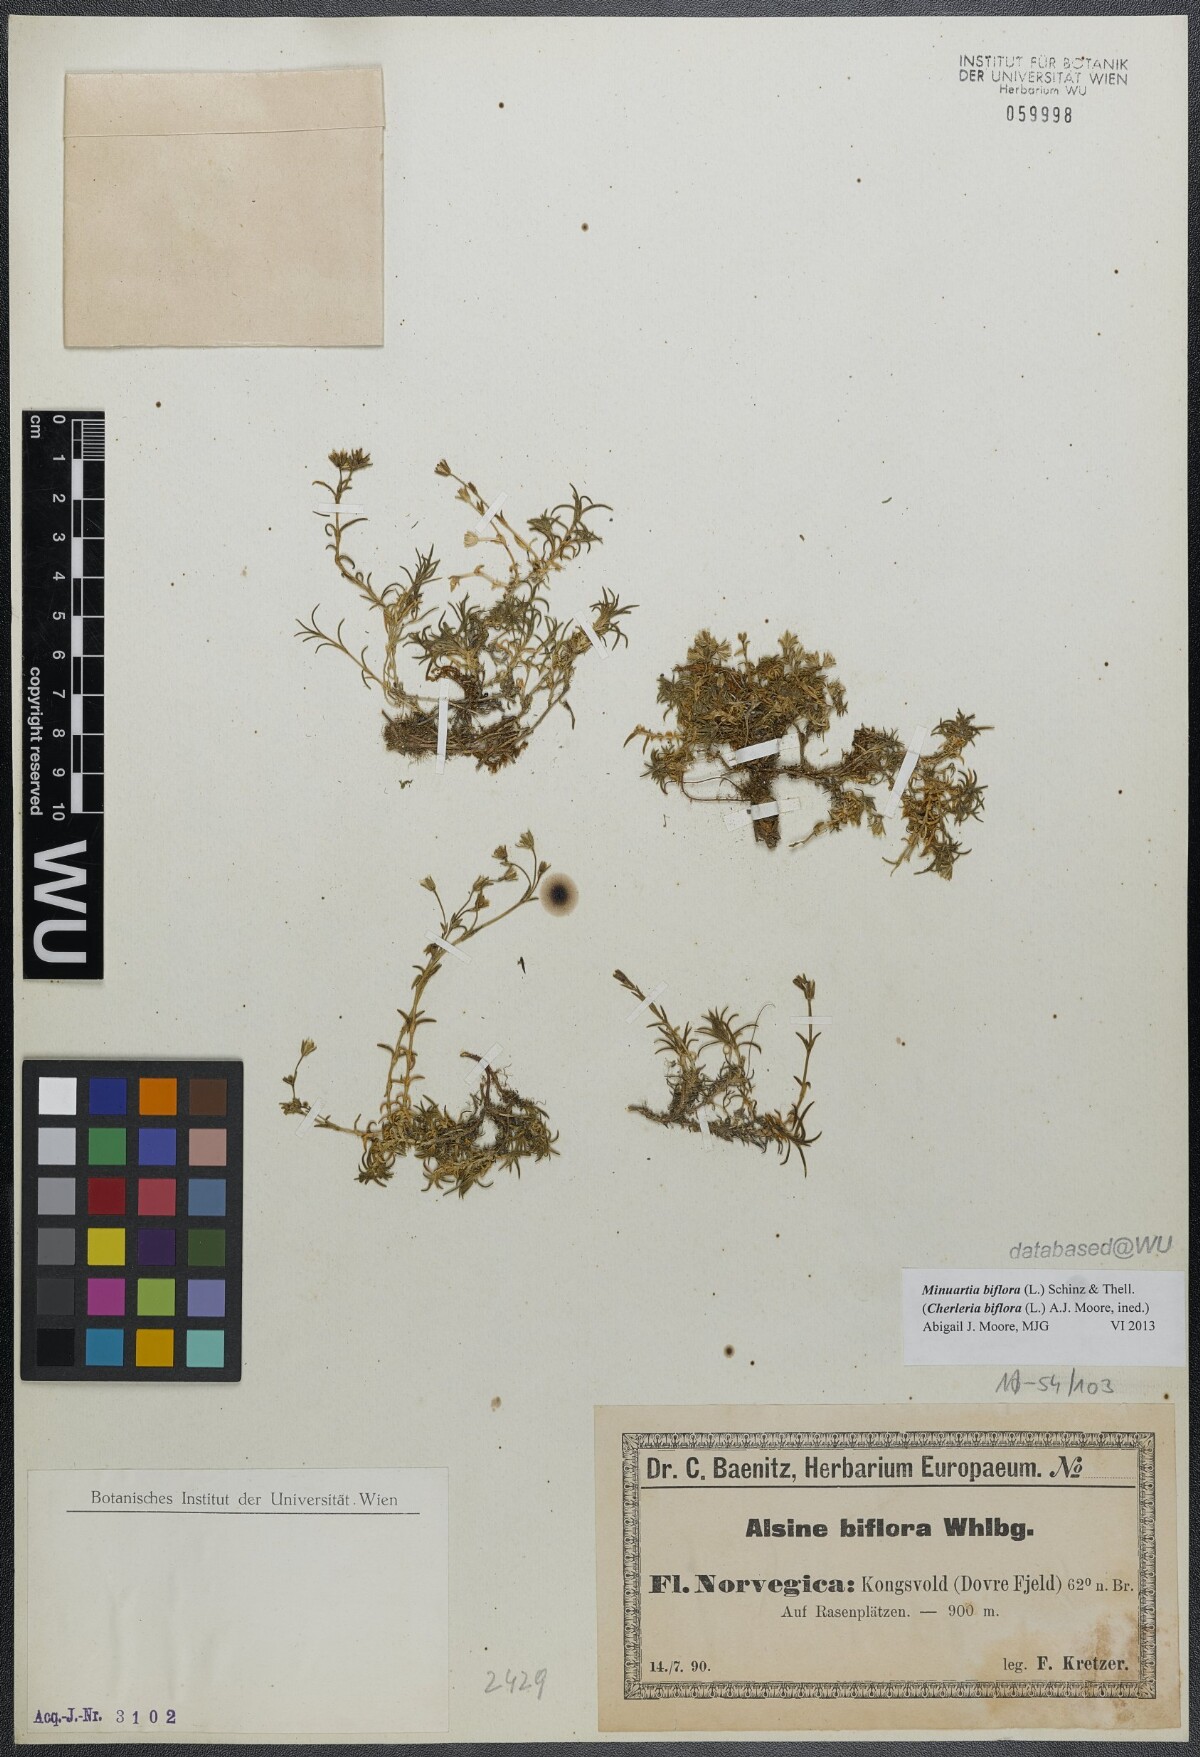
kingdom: Plantae
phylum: Tracheophyta
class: Magnoliopsida
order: Caryophyllales
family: Caryophyllaceae
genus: Cherleria
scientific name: Cherleria biflora
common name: Mountain sandwort
